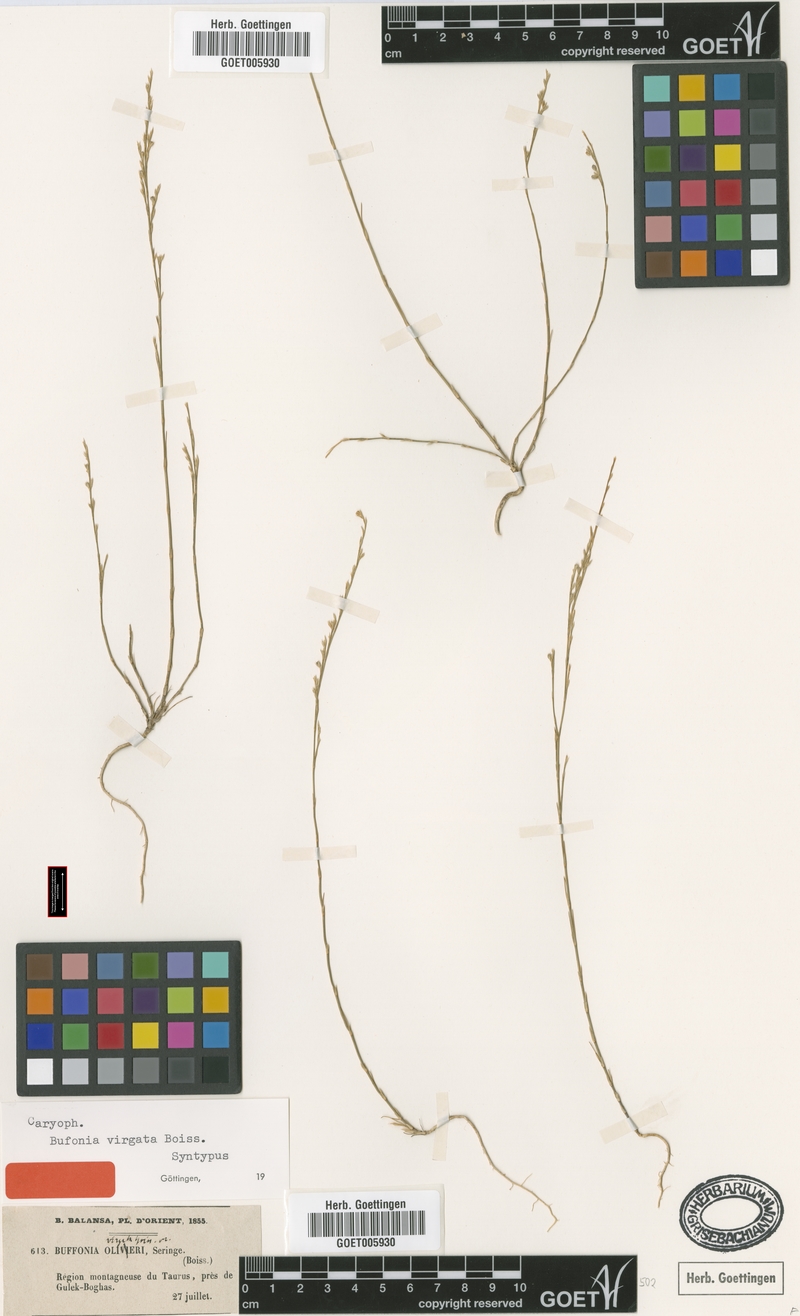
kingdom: Plantae
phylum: Tracheophyta
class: Magnoliopsida
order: Caryophyllales
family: Caryophyllaceae
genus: Bufonia
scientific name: Bufonia virgata
